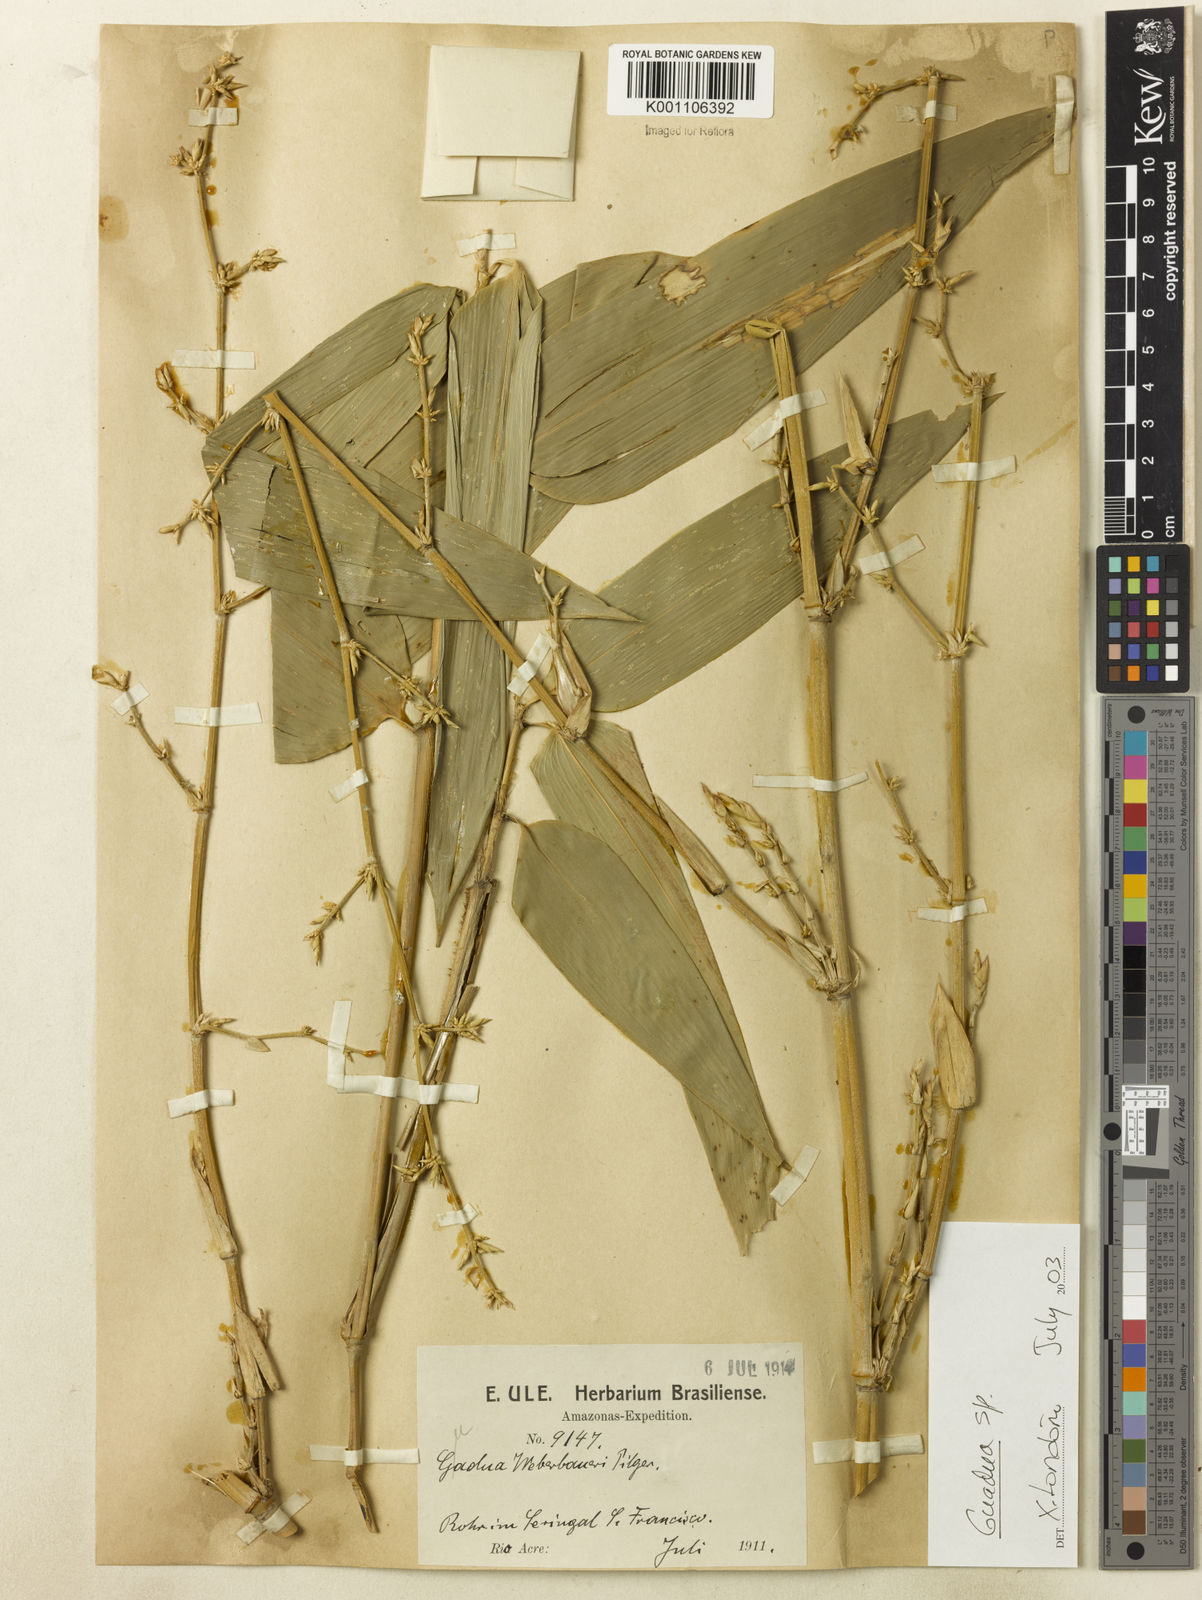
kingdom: Plantae
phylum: Tracheophyta
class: Liliopsida
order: Poales
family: Poaceae
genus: Guadua
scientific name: Guadua
